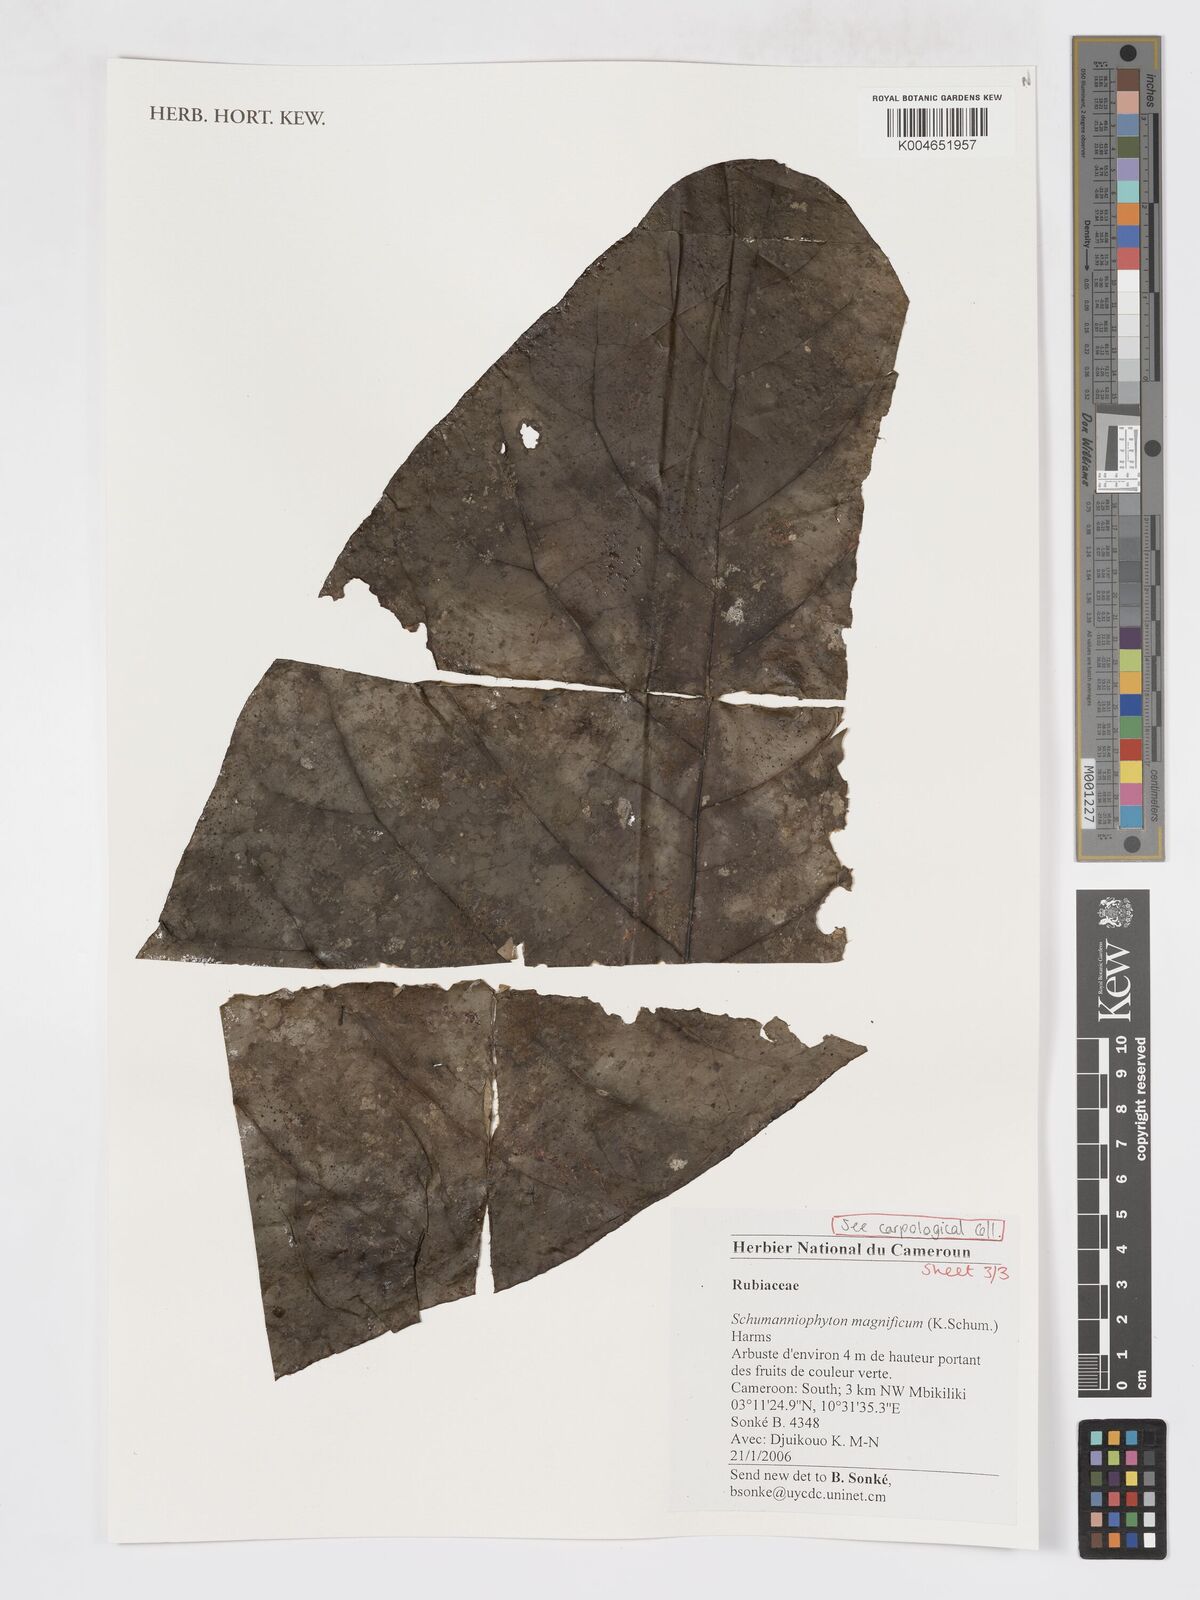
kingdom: Plantae
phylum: Tracheophyta
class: Magnoliopsida
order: Gentianales
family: Rubiaceae
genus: Schumanniophyton
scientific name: Schumanniophyton magnificum
